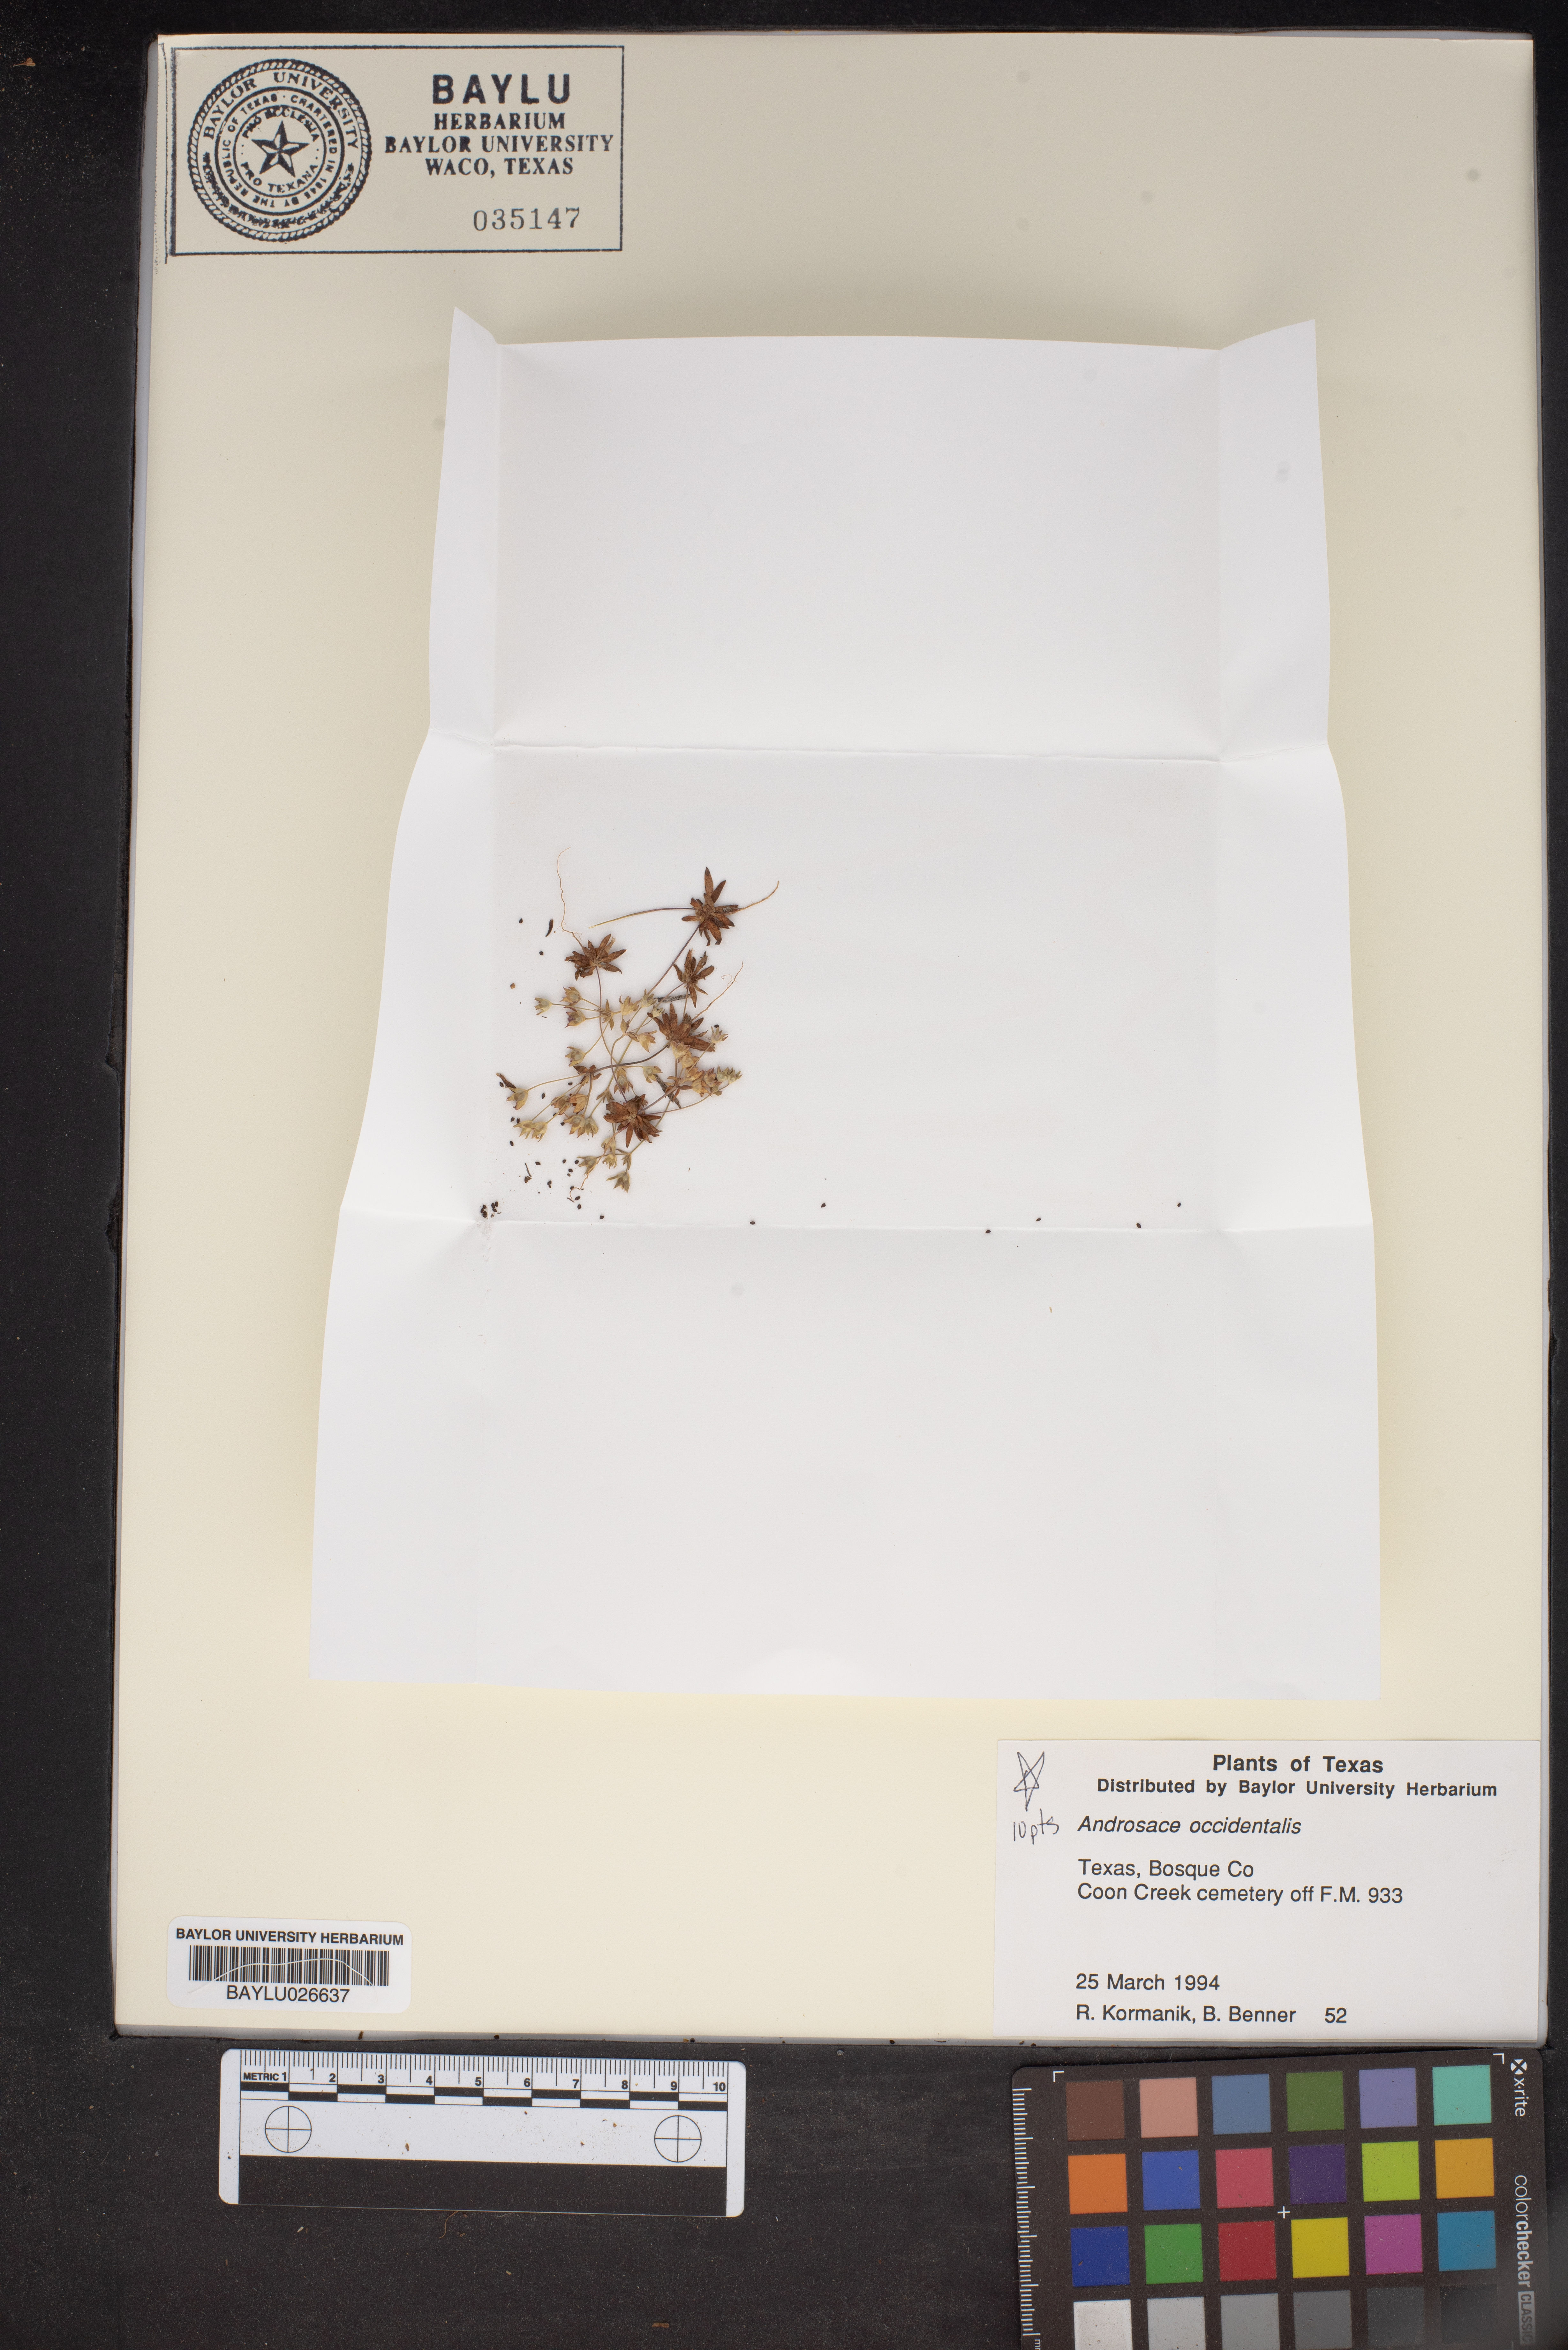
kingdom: Plantae
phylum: Tracheophyta
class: Magnoliopsida
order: Ericales
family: Primulaceae
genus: Androsace
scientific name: Androsace occidentalis
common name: West rock-jasmine
